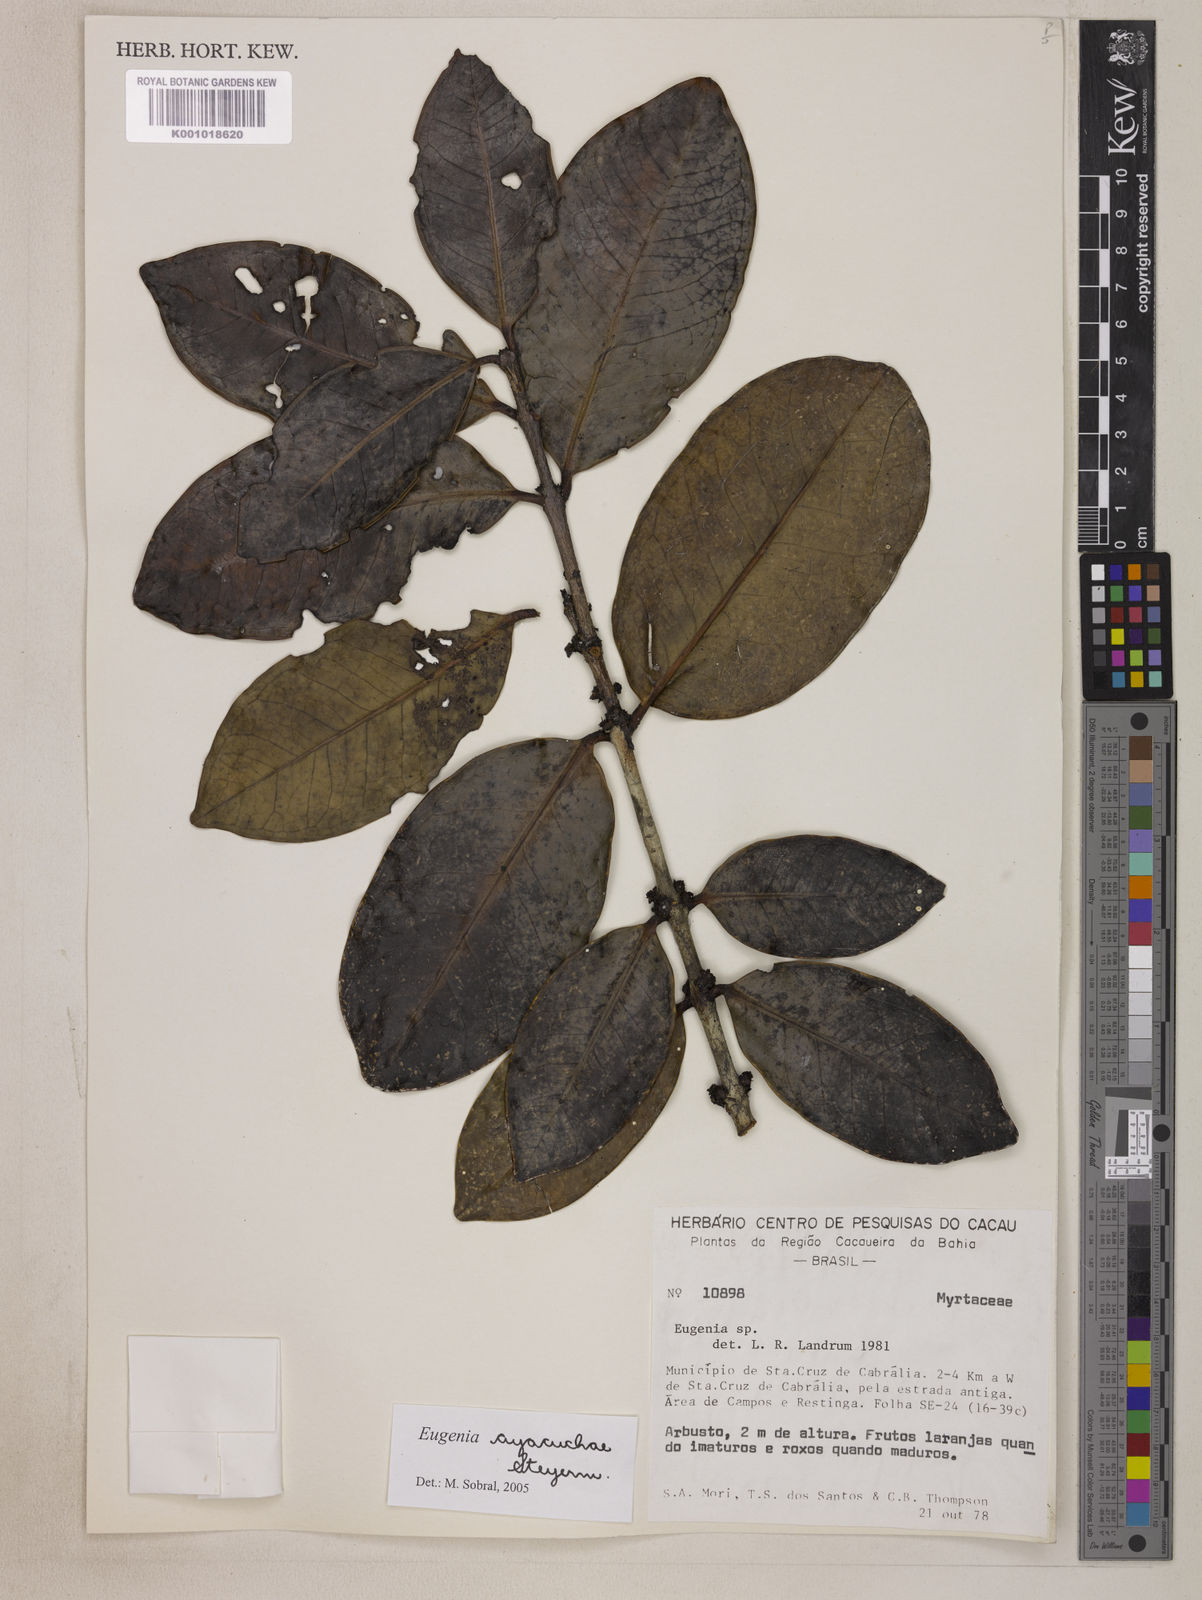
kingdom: Plantae
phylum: Tracheophyta
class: Magnoliopsida
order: Myrtales
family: Myrtaceae
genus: Eugenia
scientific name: Eugenia ayacuchae
